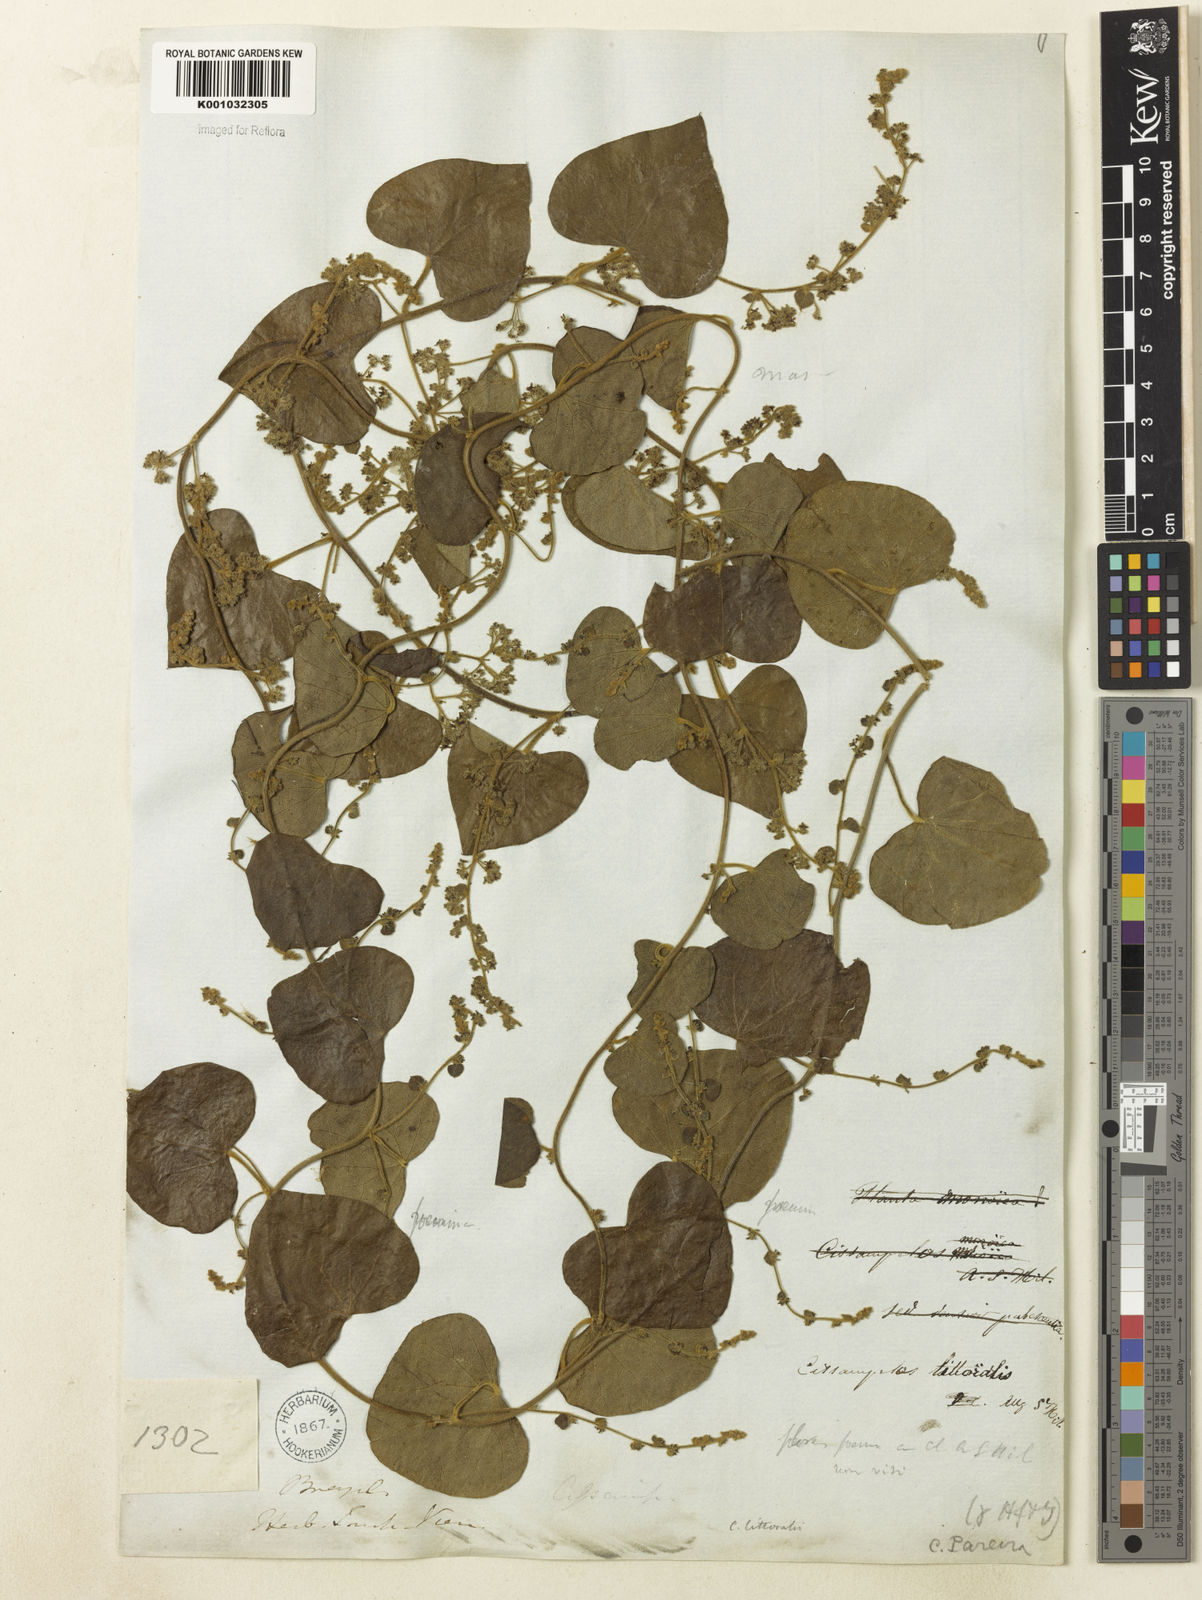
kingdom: Plantae
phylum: Tracheophyta
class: Magnoliopsida
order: Ranunculales
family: Menispermaceae
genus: Cissampelos
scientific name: Cissampelos pareira
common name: Velvetleaf
